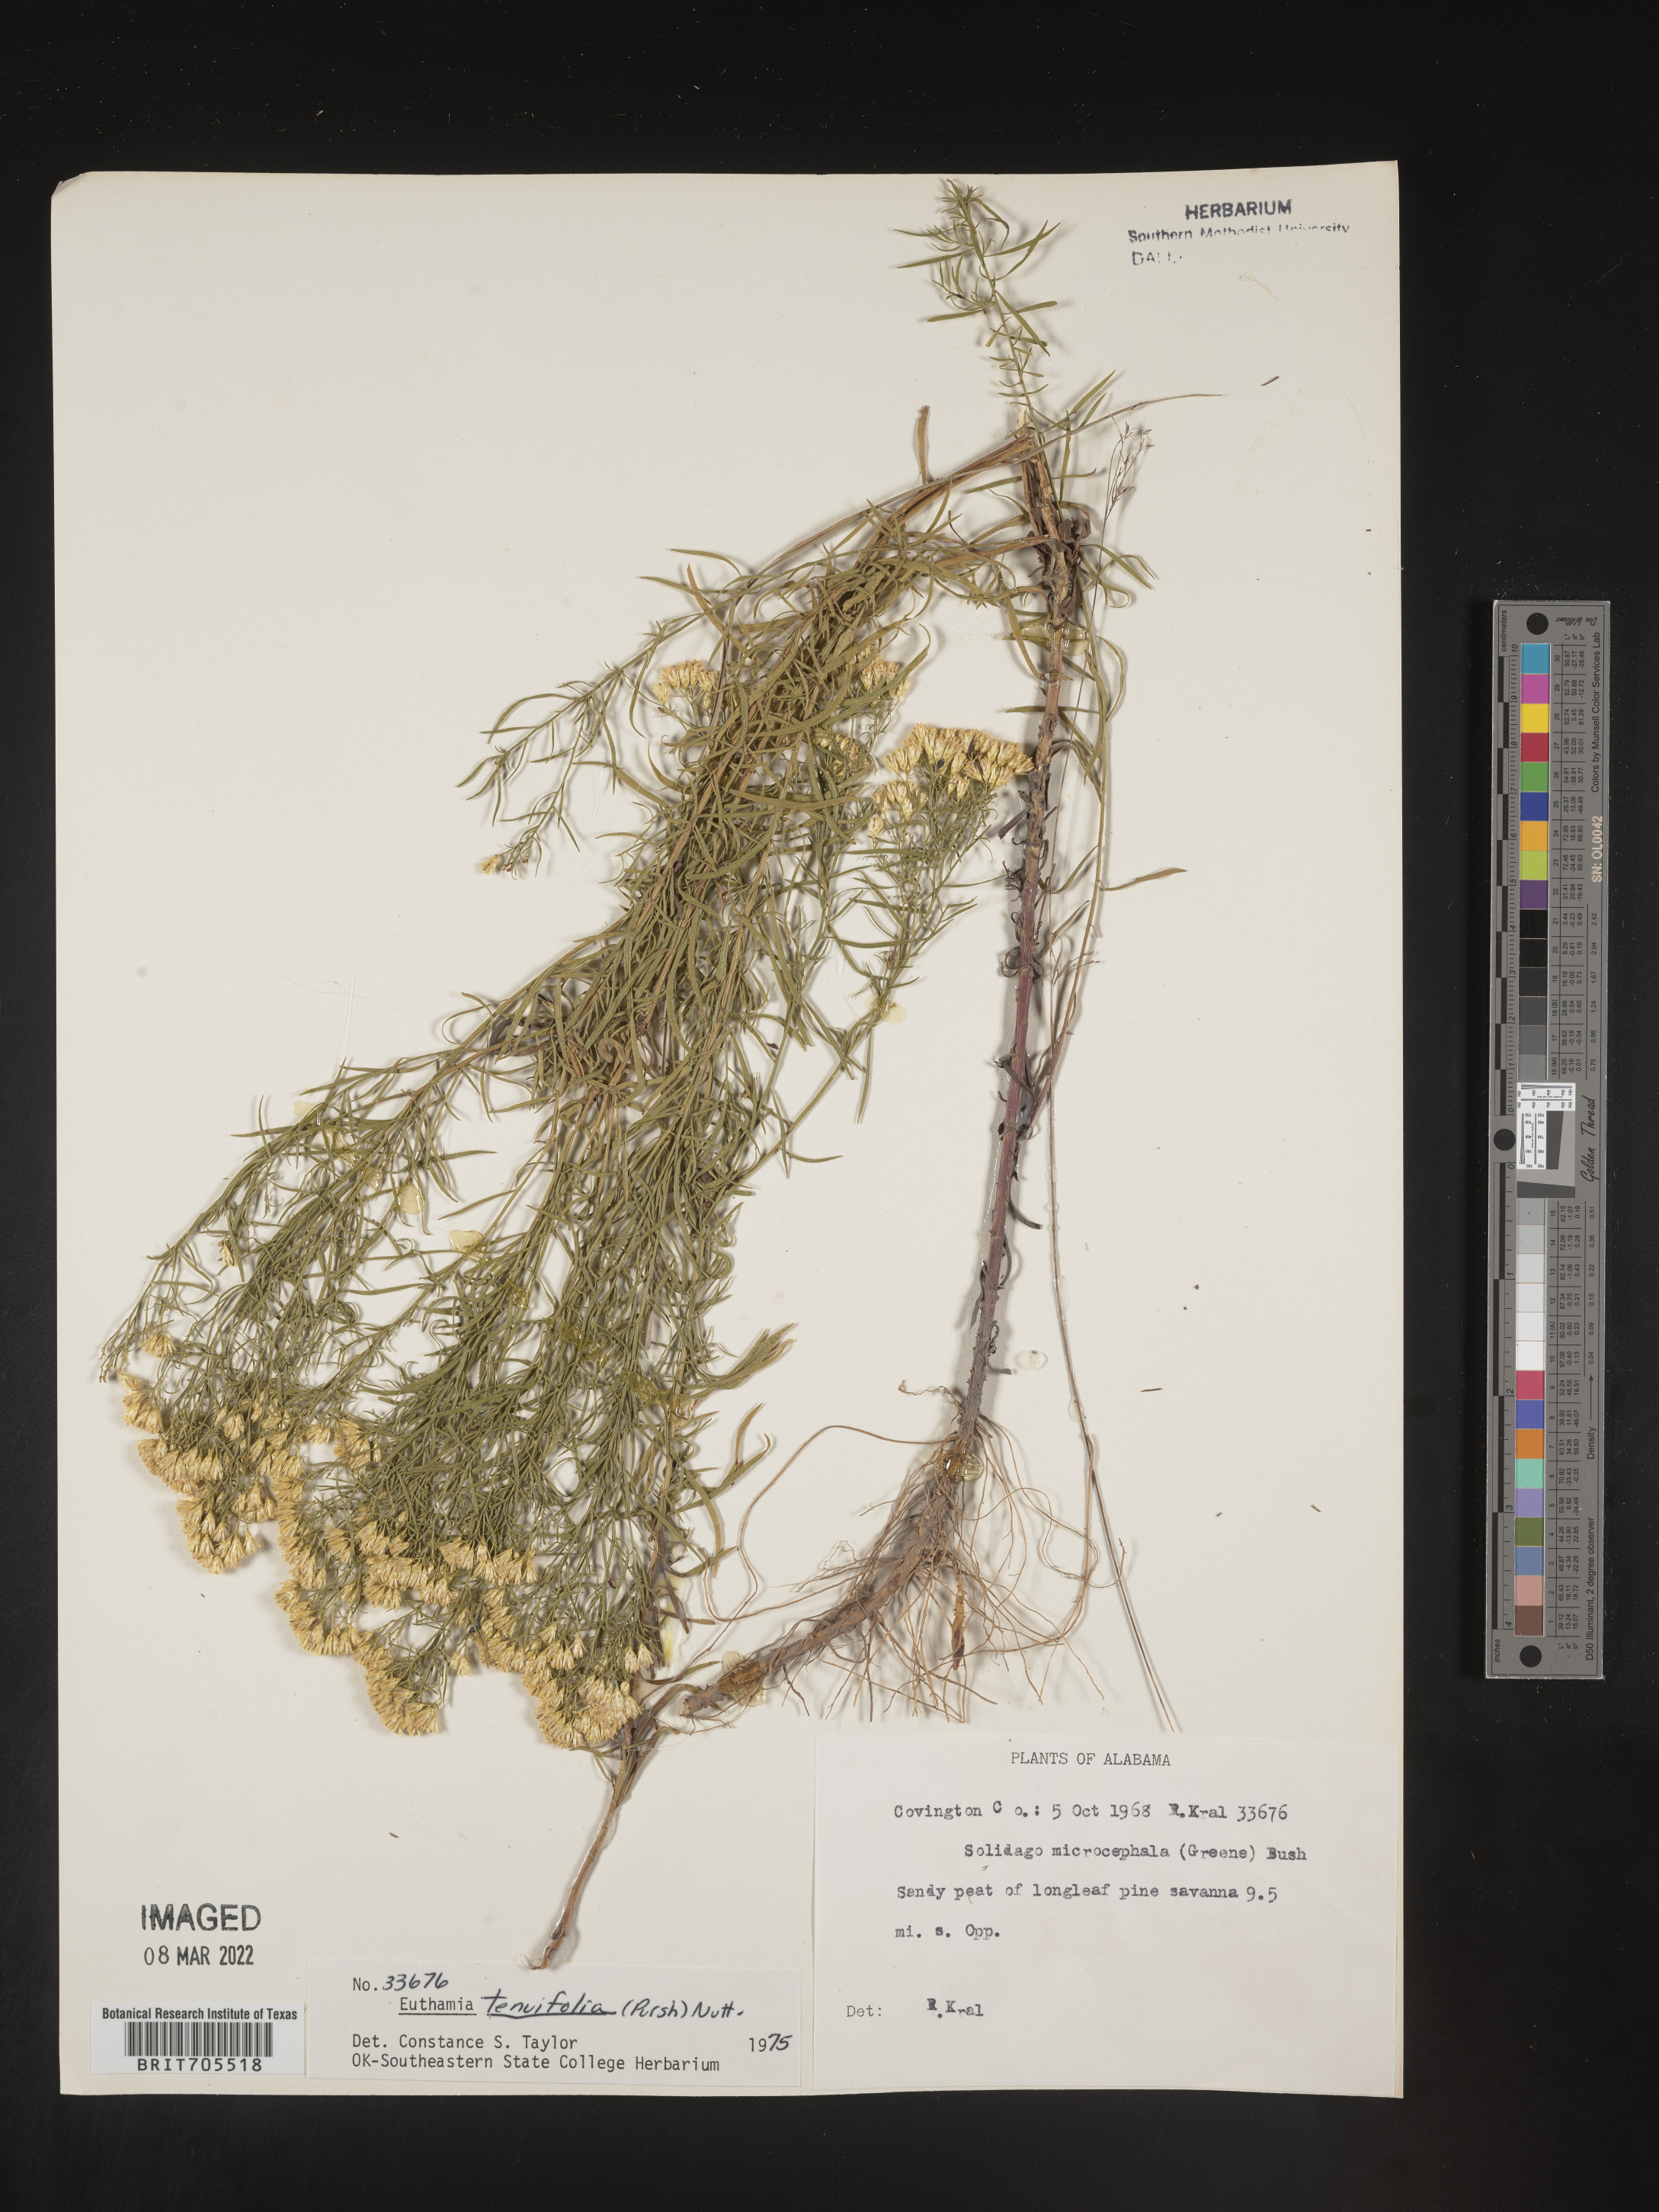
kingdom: Plantae
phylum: Tracheophyta
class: Magnoliopsida
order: Asterales
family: Asteraceae
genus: Euthamia
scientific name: Euthamia caroliniana
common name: Coastal plain goldentop
